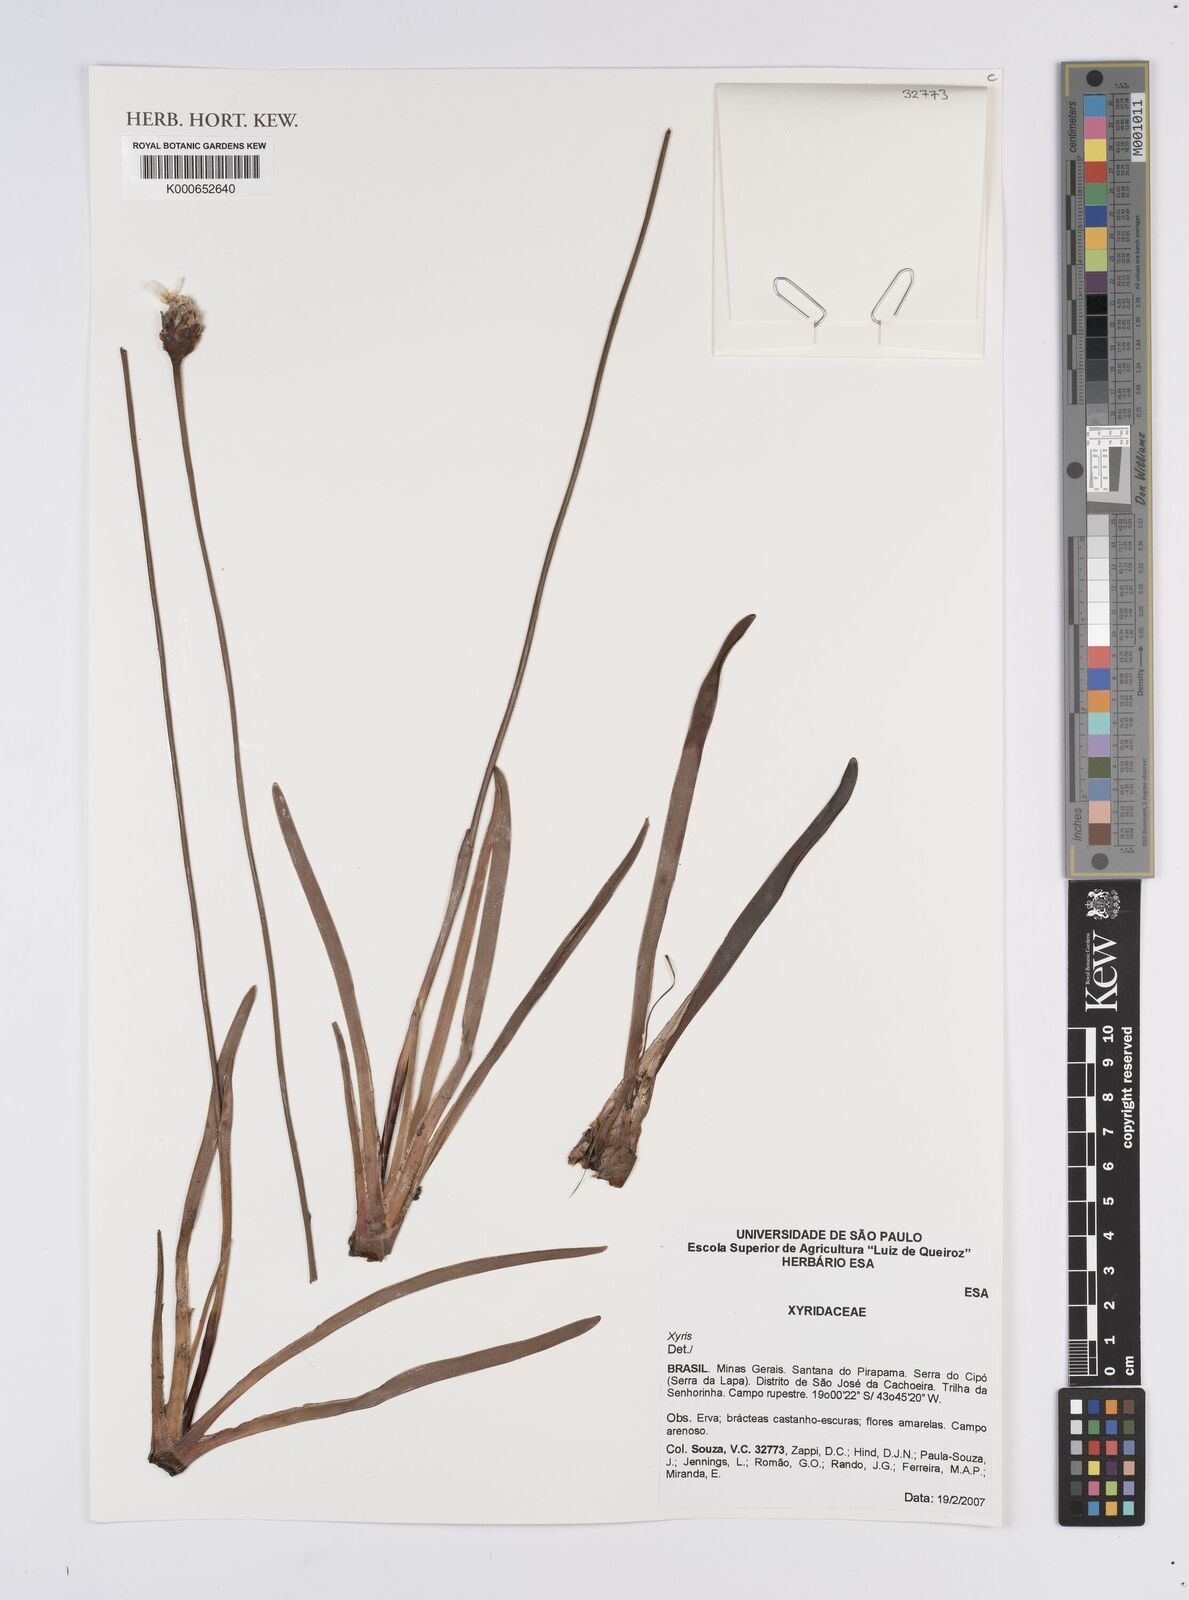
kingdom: Plantae
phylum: Tracheophyta
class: Liliopsida
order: Poales
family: Xyridaceae
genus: Xyris
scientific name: Xyris
